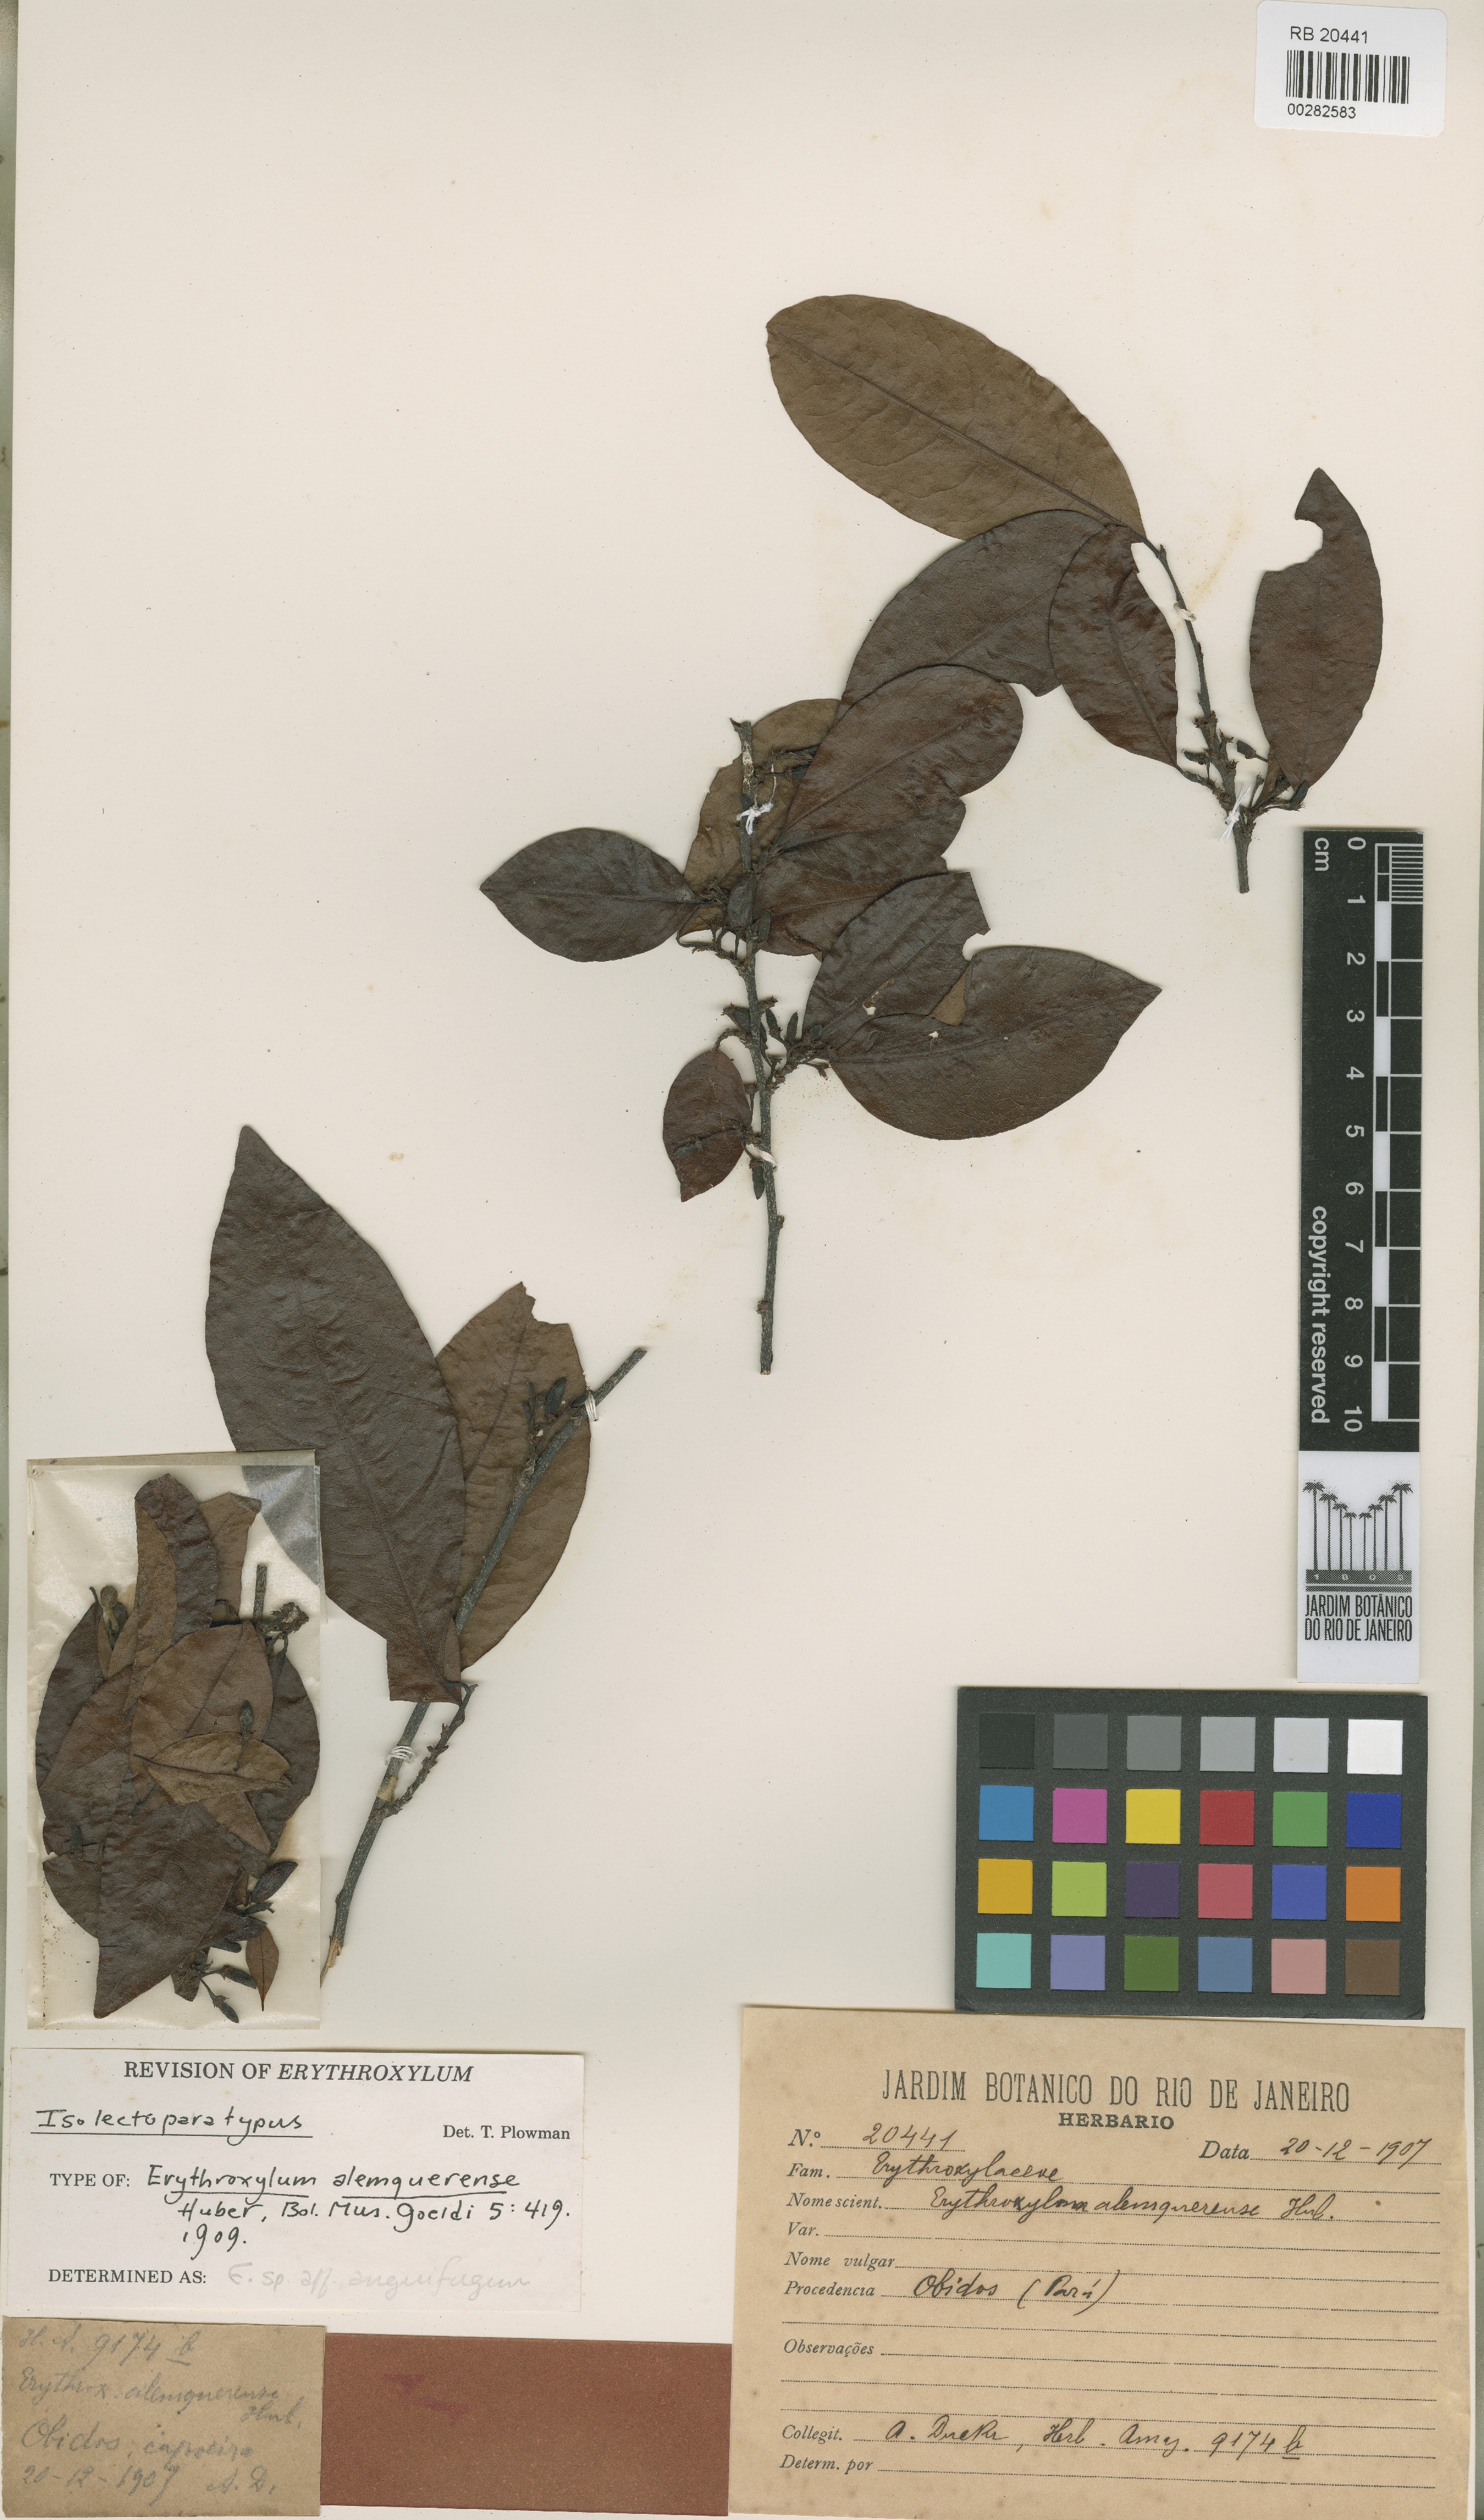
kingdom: Plantae
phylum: Tracheophyta
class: Magnoliopsida
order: Malpighiales
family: Erythroxylaceae
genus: Erythroxylum
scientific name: Erythroxylum anguifugum
